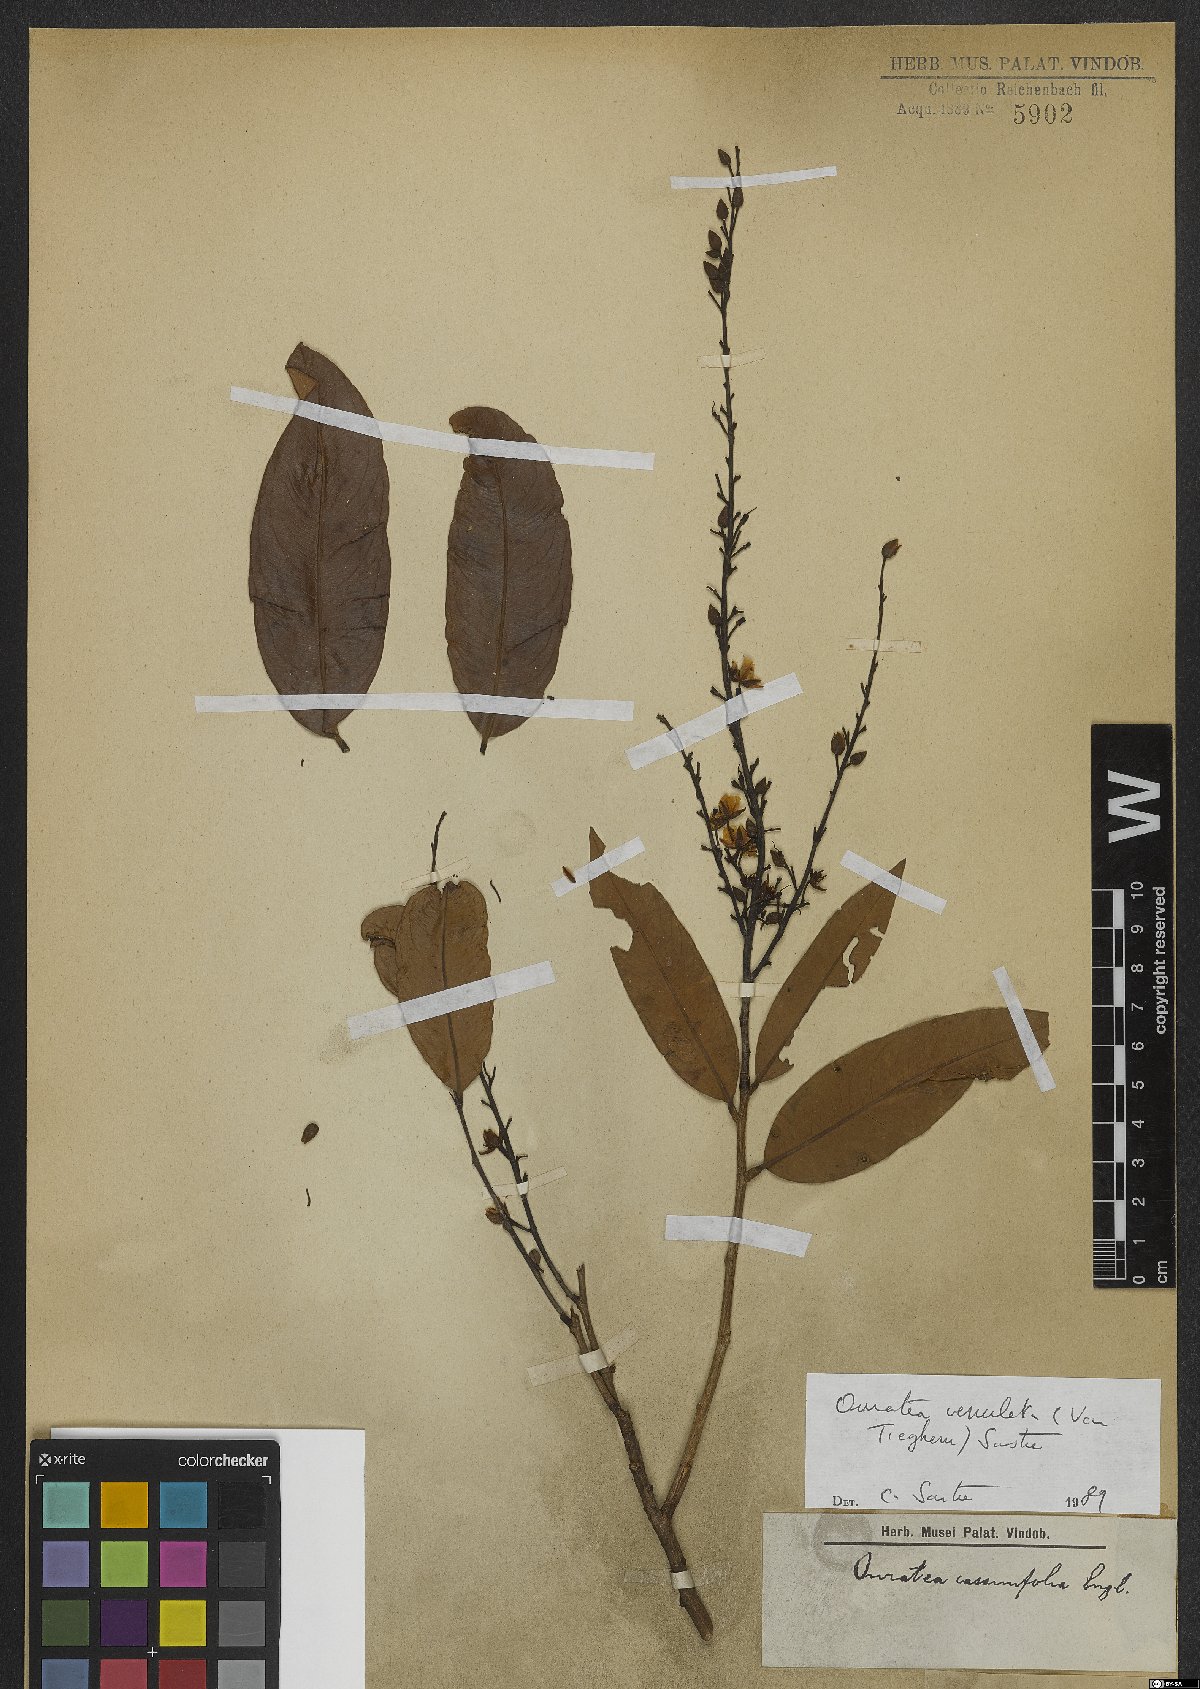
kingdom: Plantae
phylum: Tracheophyta
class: Magnoliopsida
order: Malpighiales
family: Ochnaceae
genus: Ouratea
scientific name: Ouratea venulata
